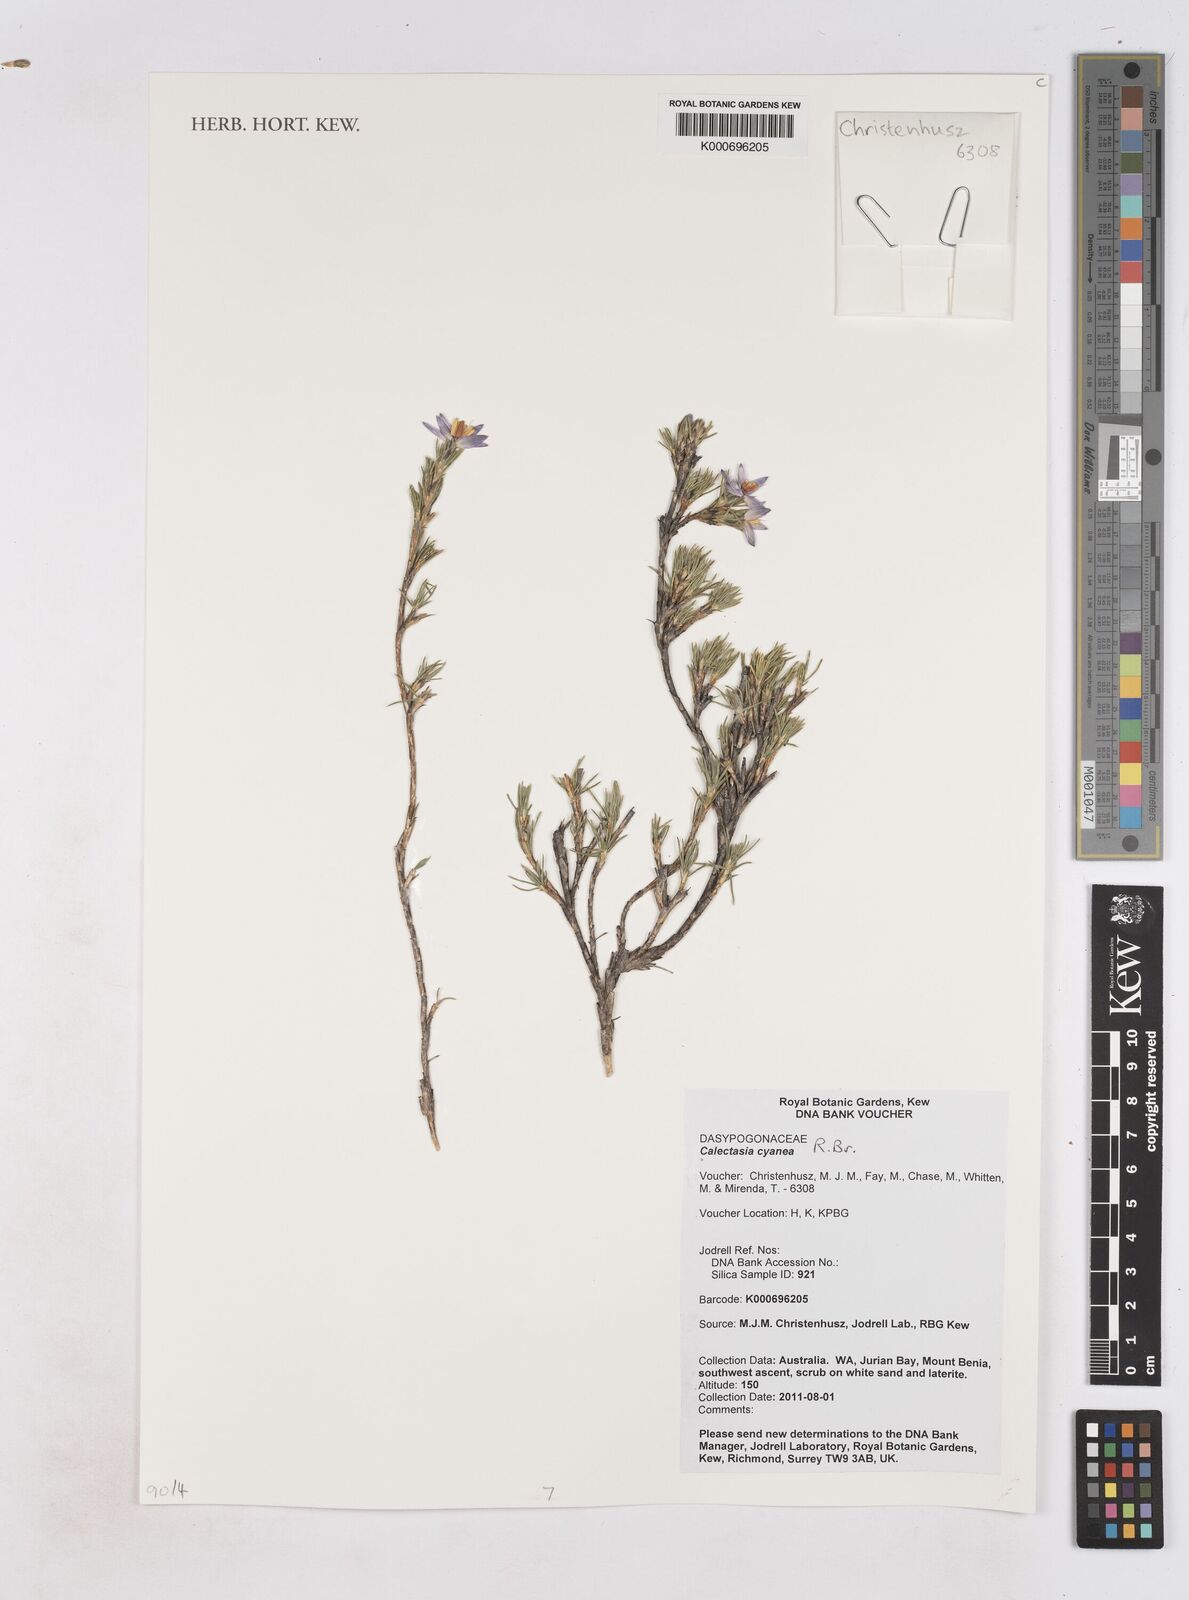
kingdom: Plantae
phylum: Tracheophyta
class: Liliopsida
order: Arecales
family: Dasypogonaceae
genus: Calectasia
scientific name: Calectasia narragara
